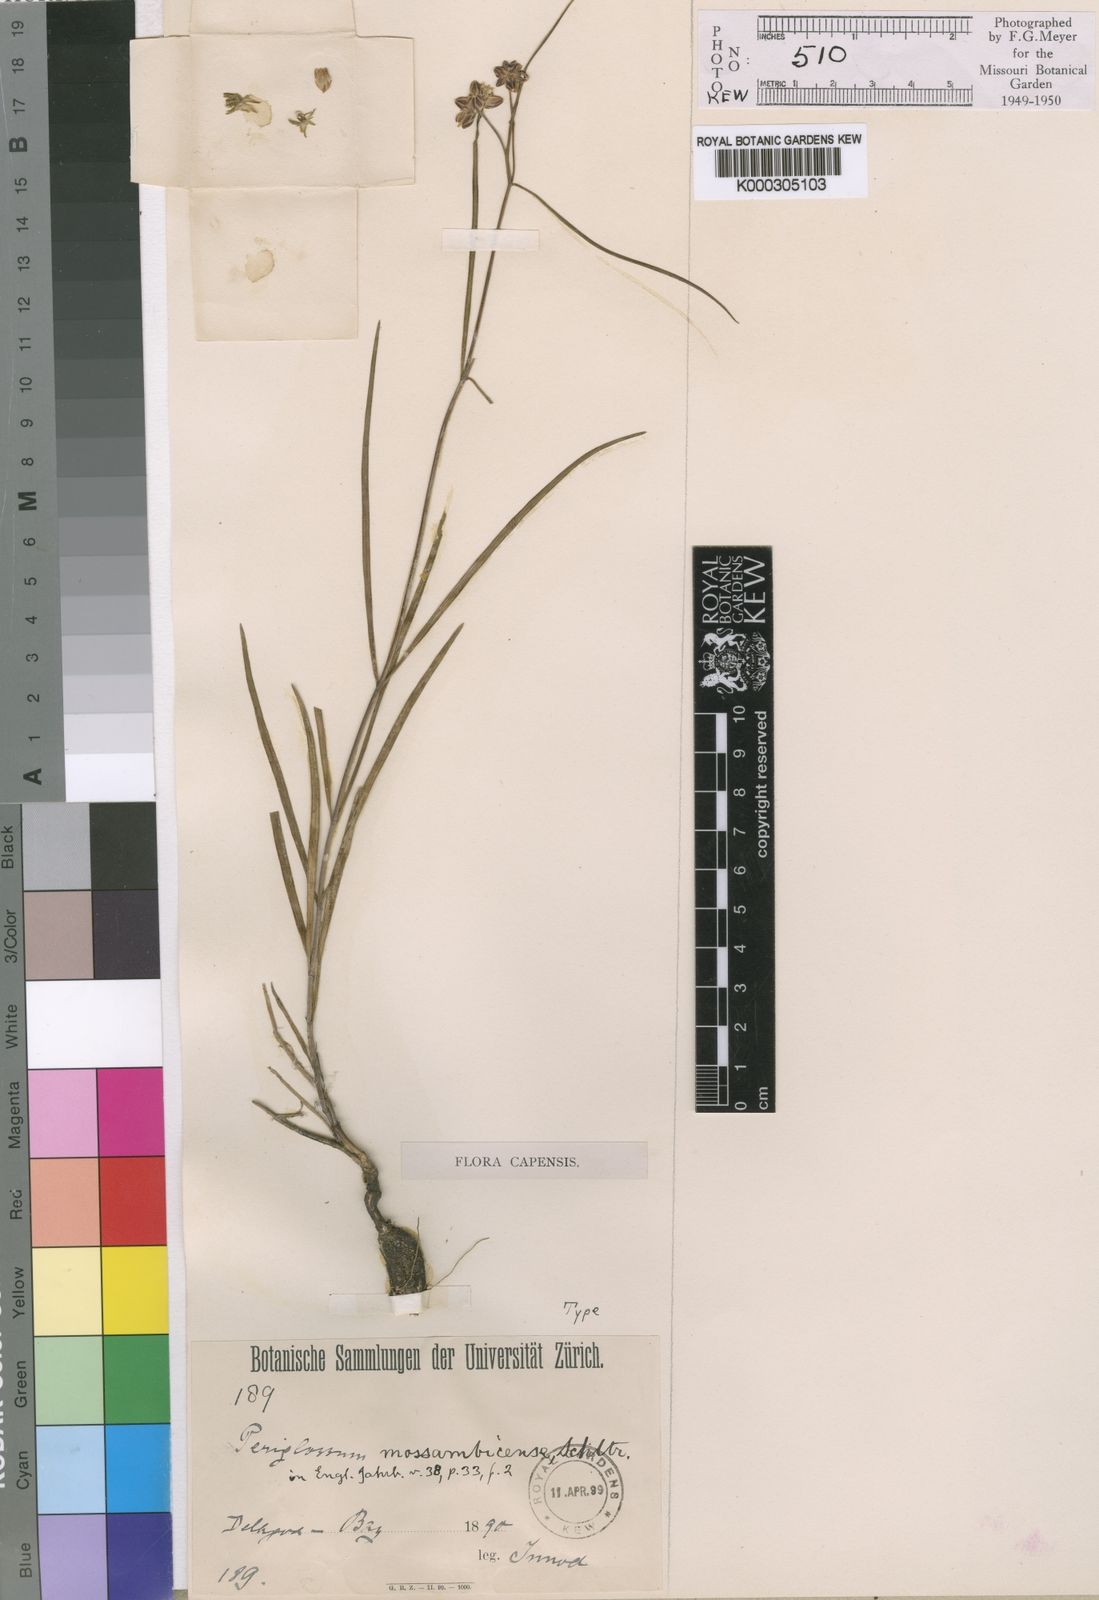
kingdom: Plantae
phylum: Tracheophyta
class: Magnoliopsida
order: Gentianales
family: Apocynaceae
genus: Periglossum
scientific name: Periglossum
